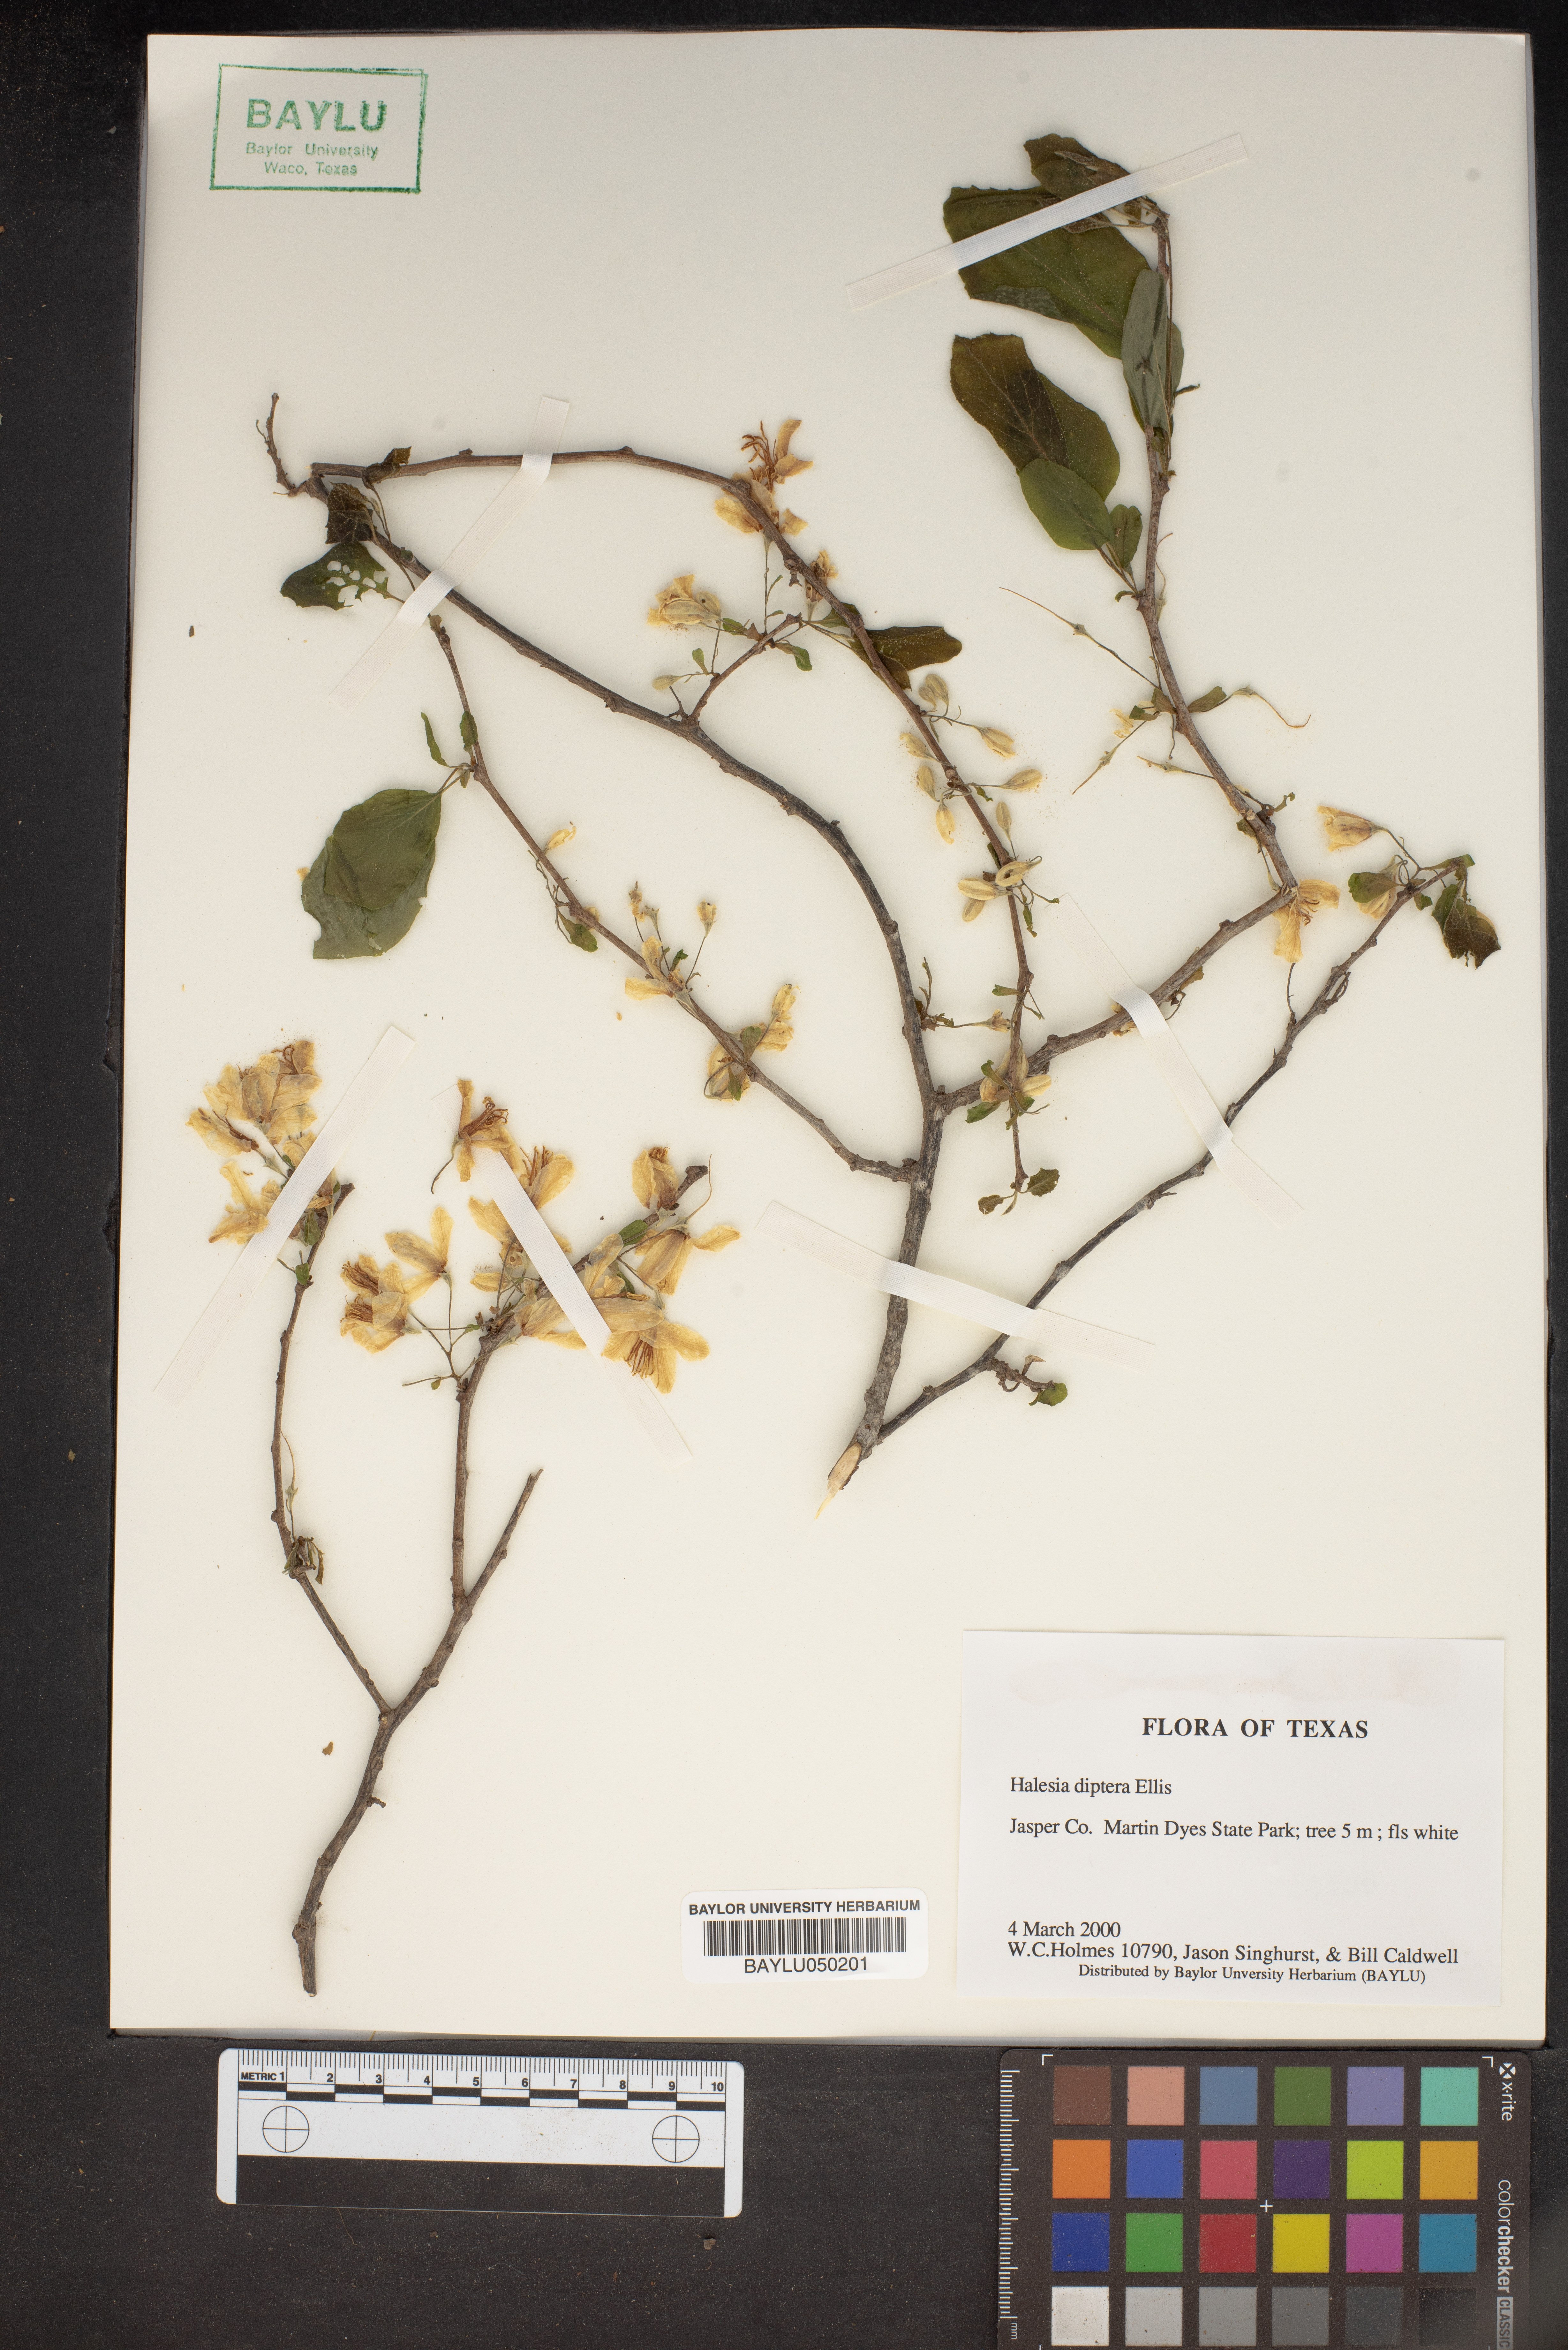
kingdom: Plantae
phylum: Tracheophyta
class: Magnoliopsida
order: Ericales
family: Styracaceae
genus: Halesia
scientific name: Halesia diptera
